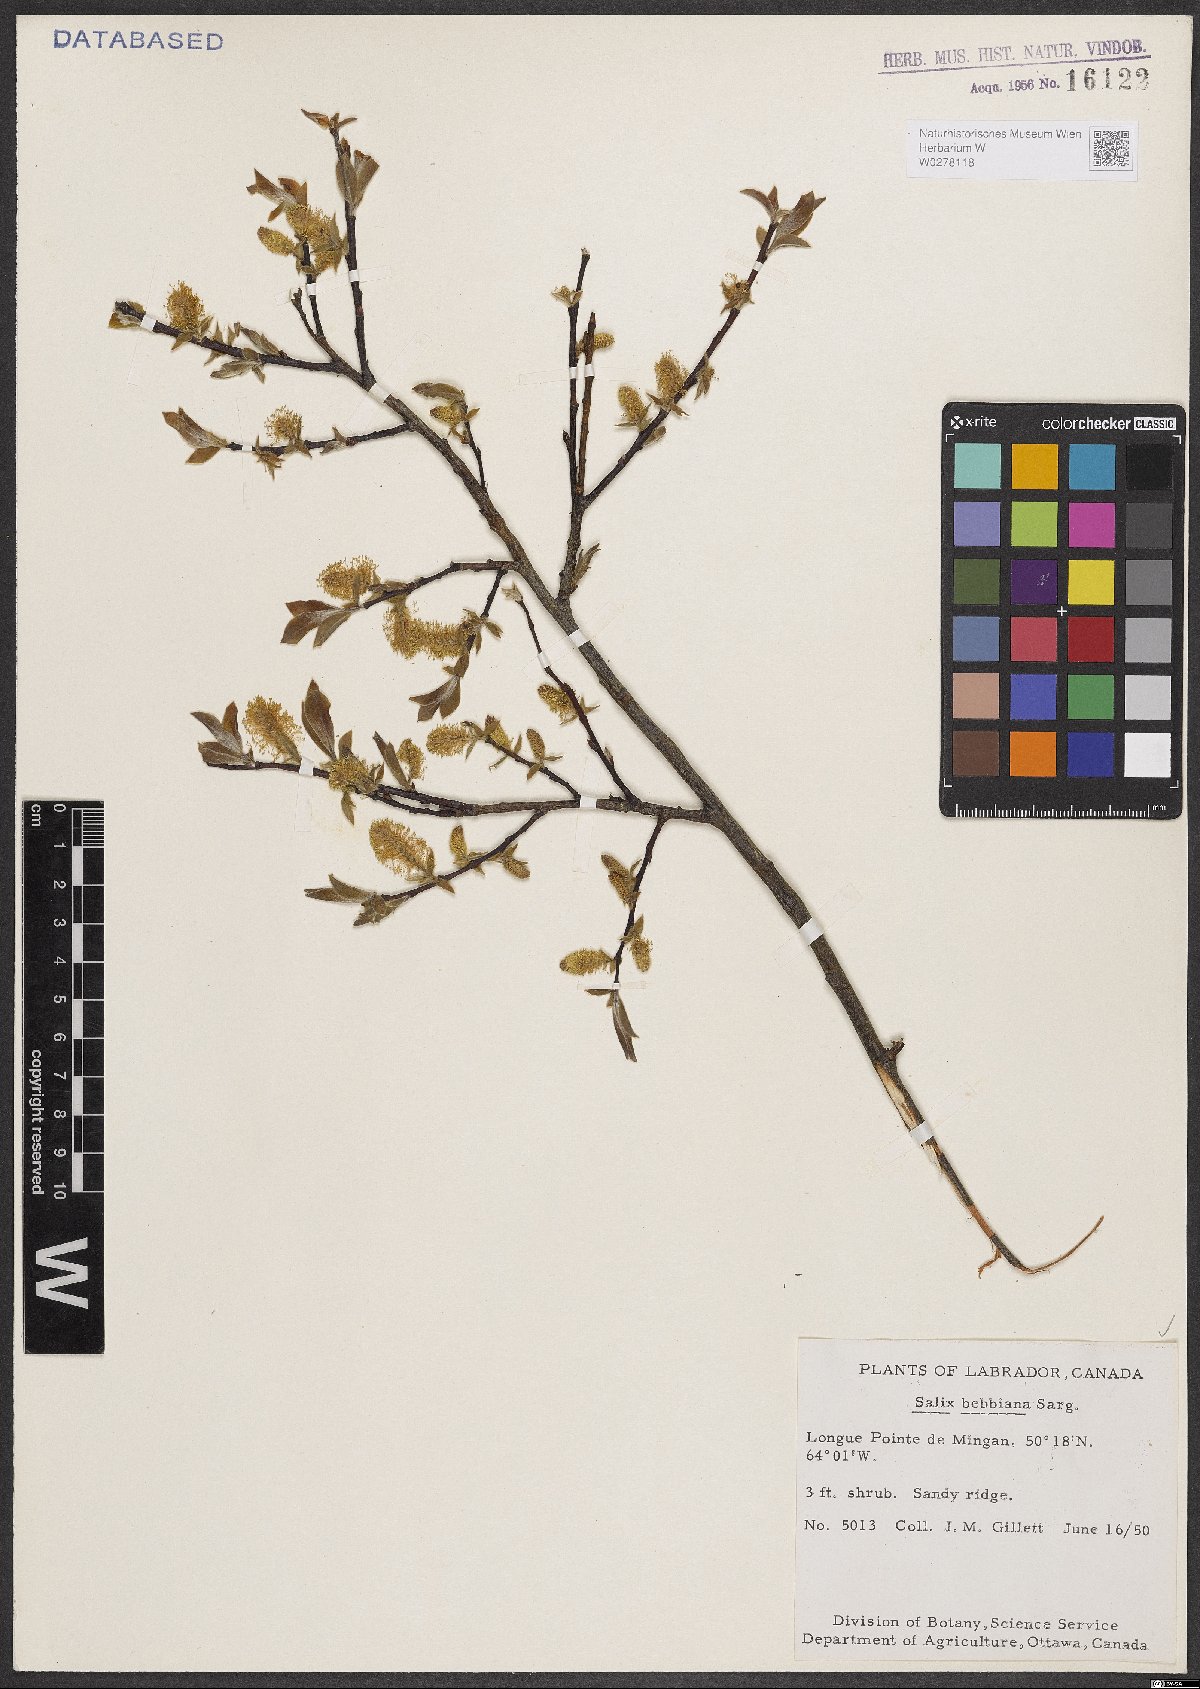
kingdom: Plantae
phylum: Tracheophyta
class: Magnoliopsida
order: Malpighiales
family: Salicaceae
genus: Salix
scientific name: Salix bebbiana
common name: Bebb's willow
